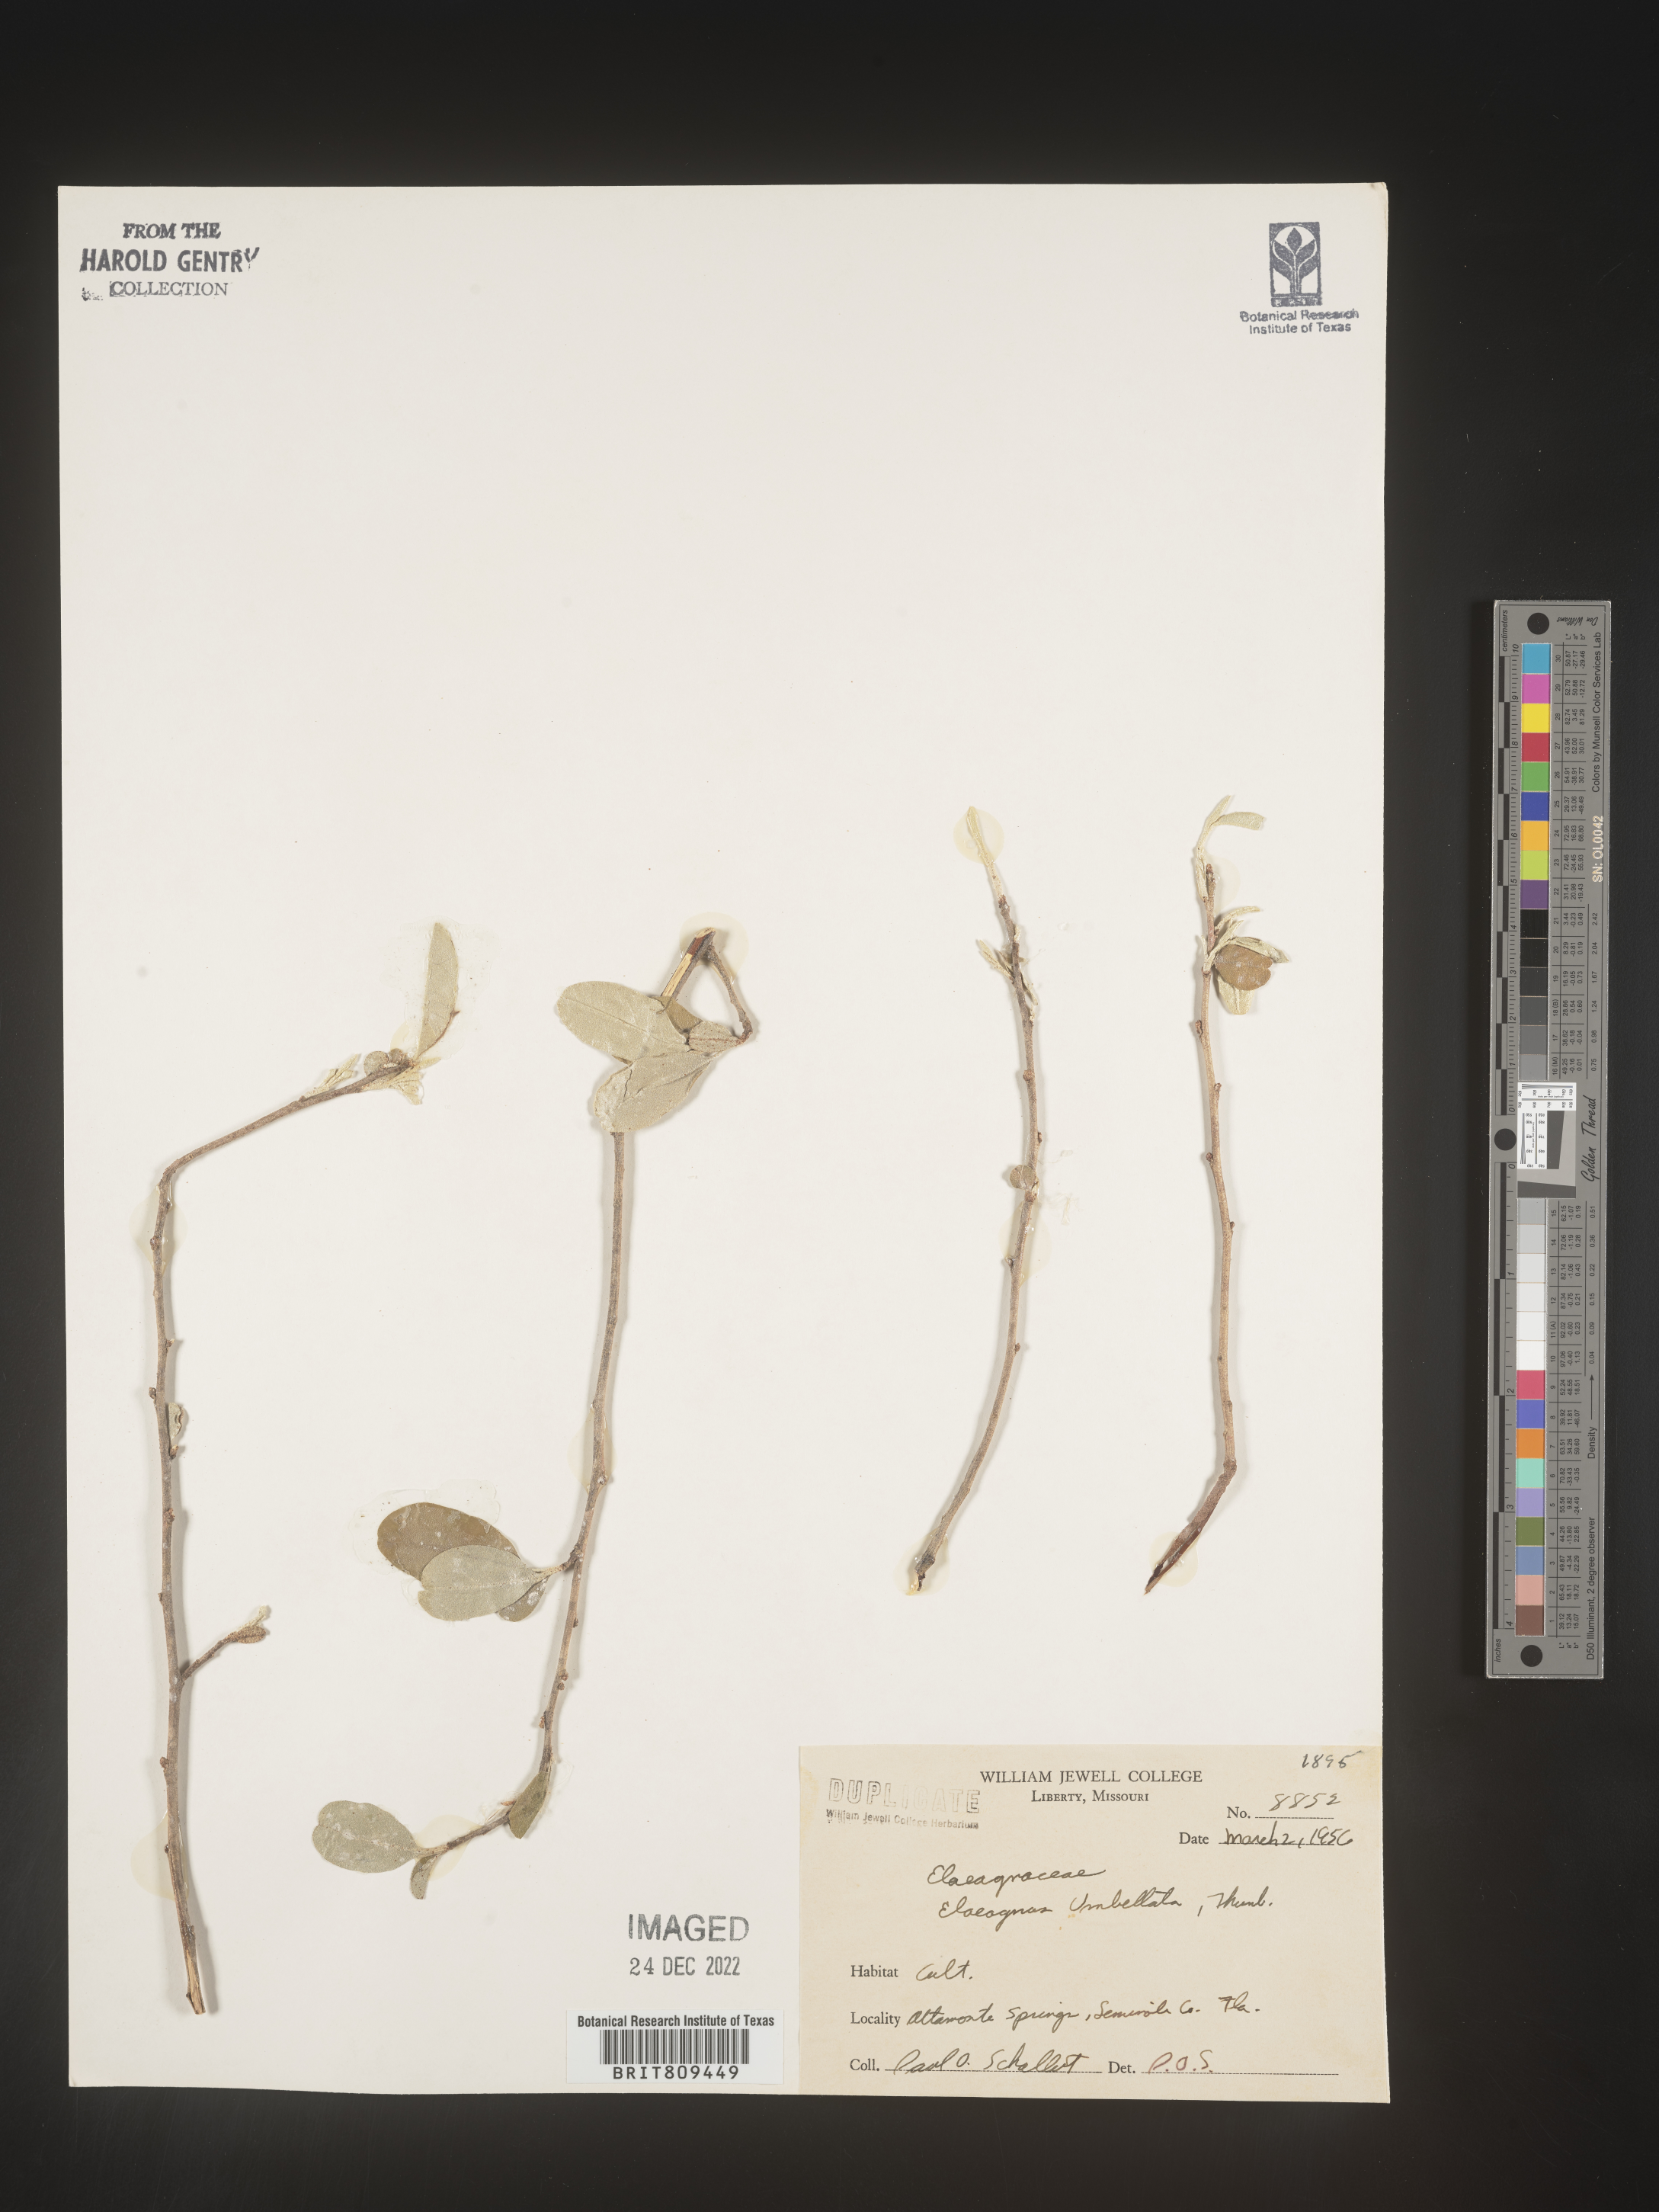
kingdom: Plantae
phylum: Tracheophyta
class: Magnoliopsida
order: Rosales
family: Elaeagnaceae
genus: Elaeagnus
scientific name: Elaeagnus
